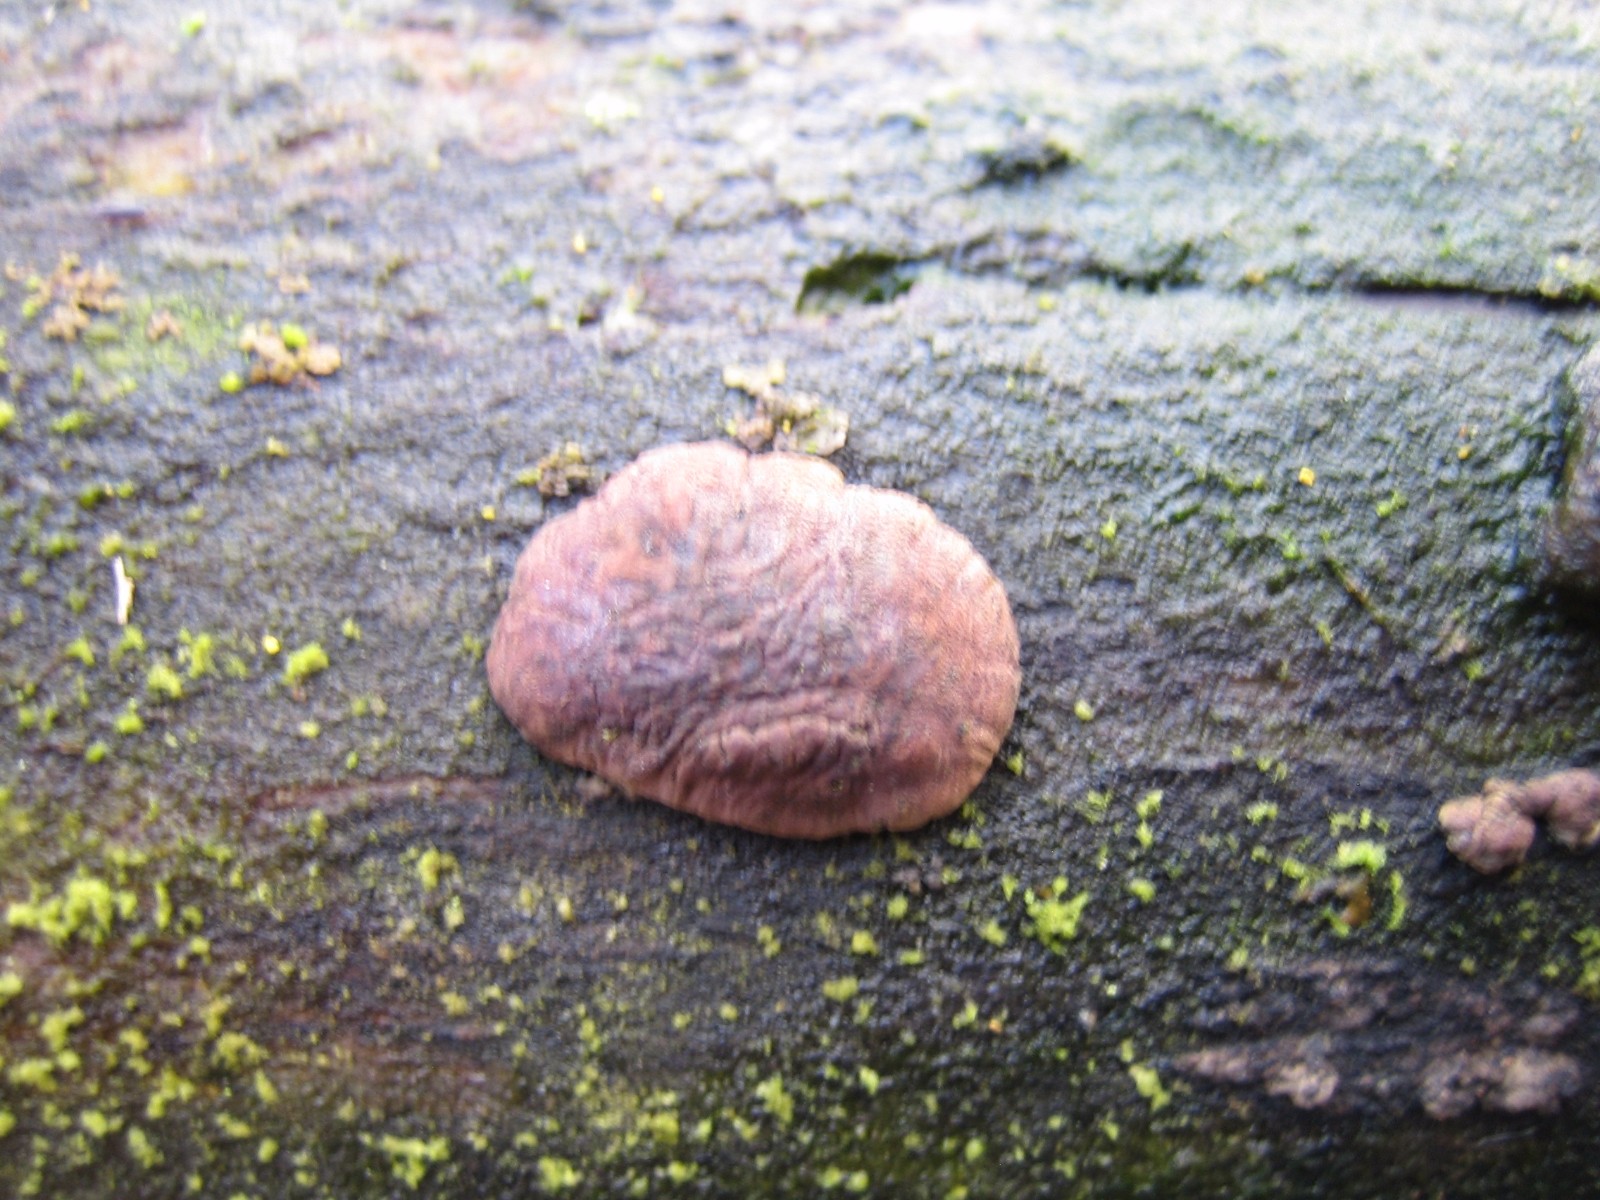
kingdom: Fungi
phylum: Ascomycota
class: Sordariomycetes
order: Xylariales
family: Hypoxylaceae
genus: Jackrogersella
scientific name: Jackrogersella multiformis
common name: foranderlig kulbær
